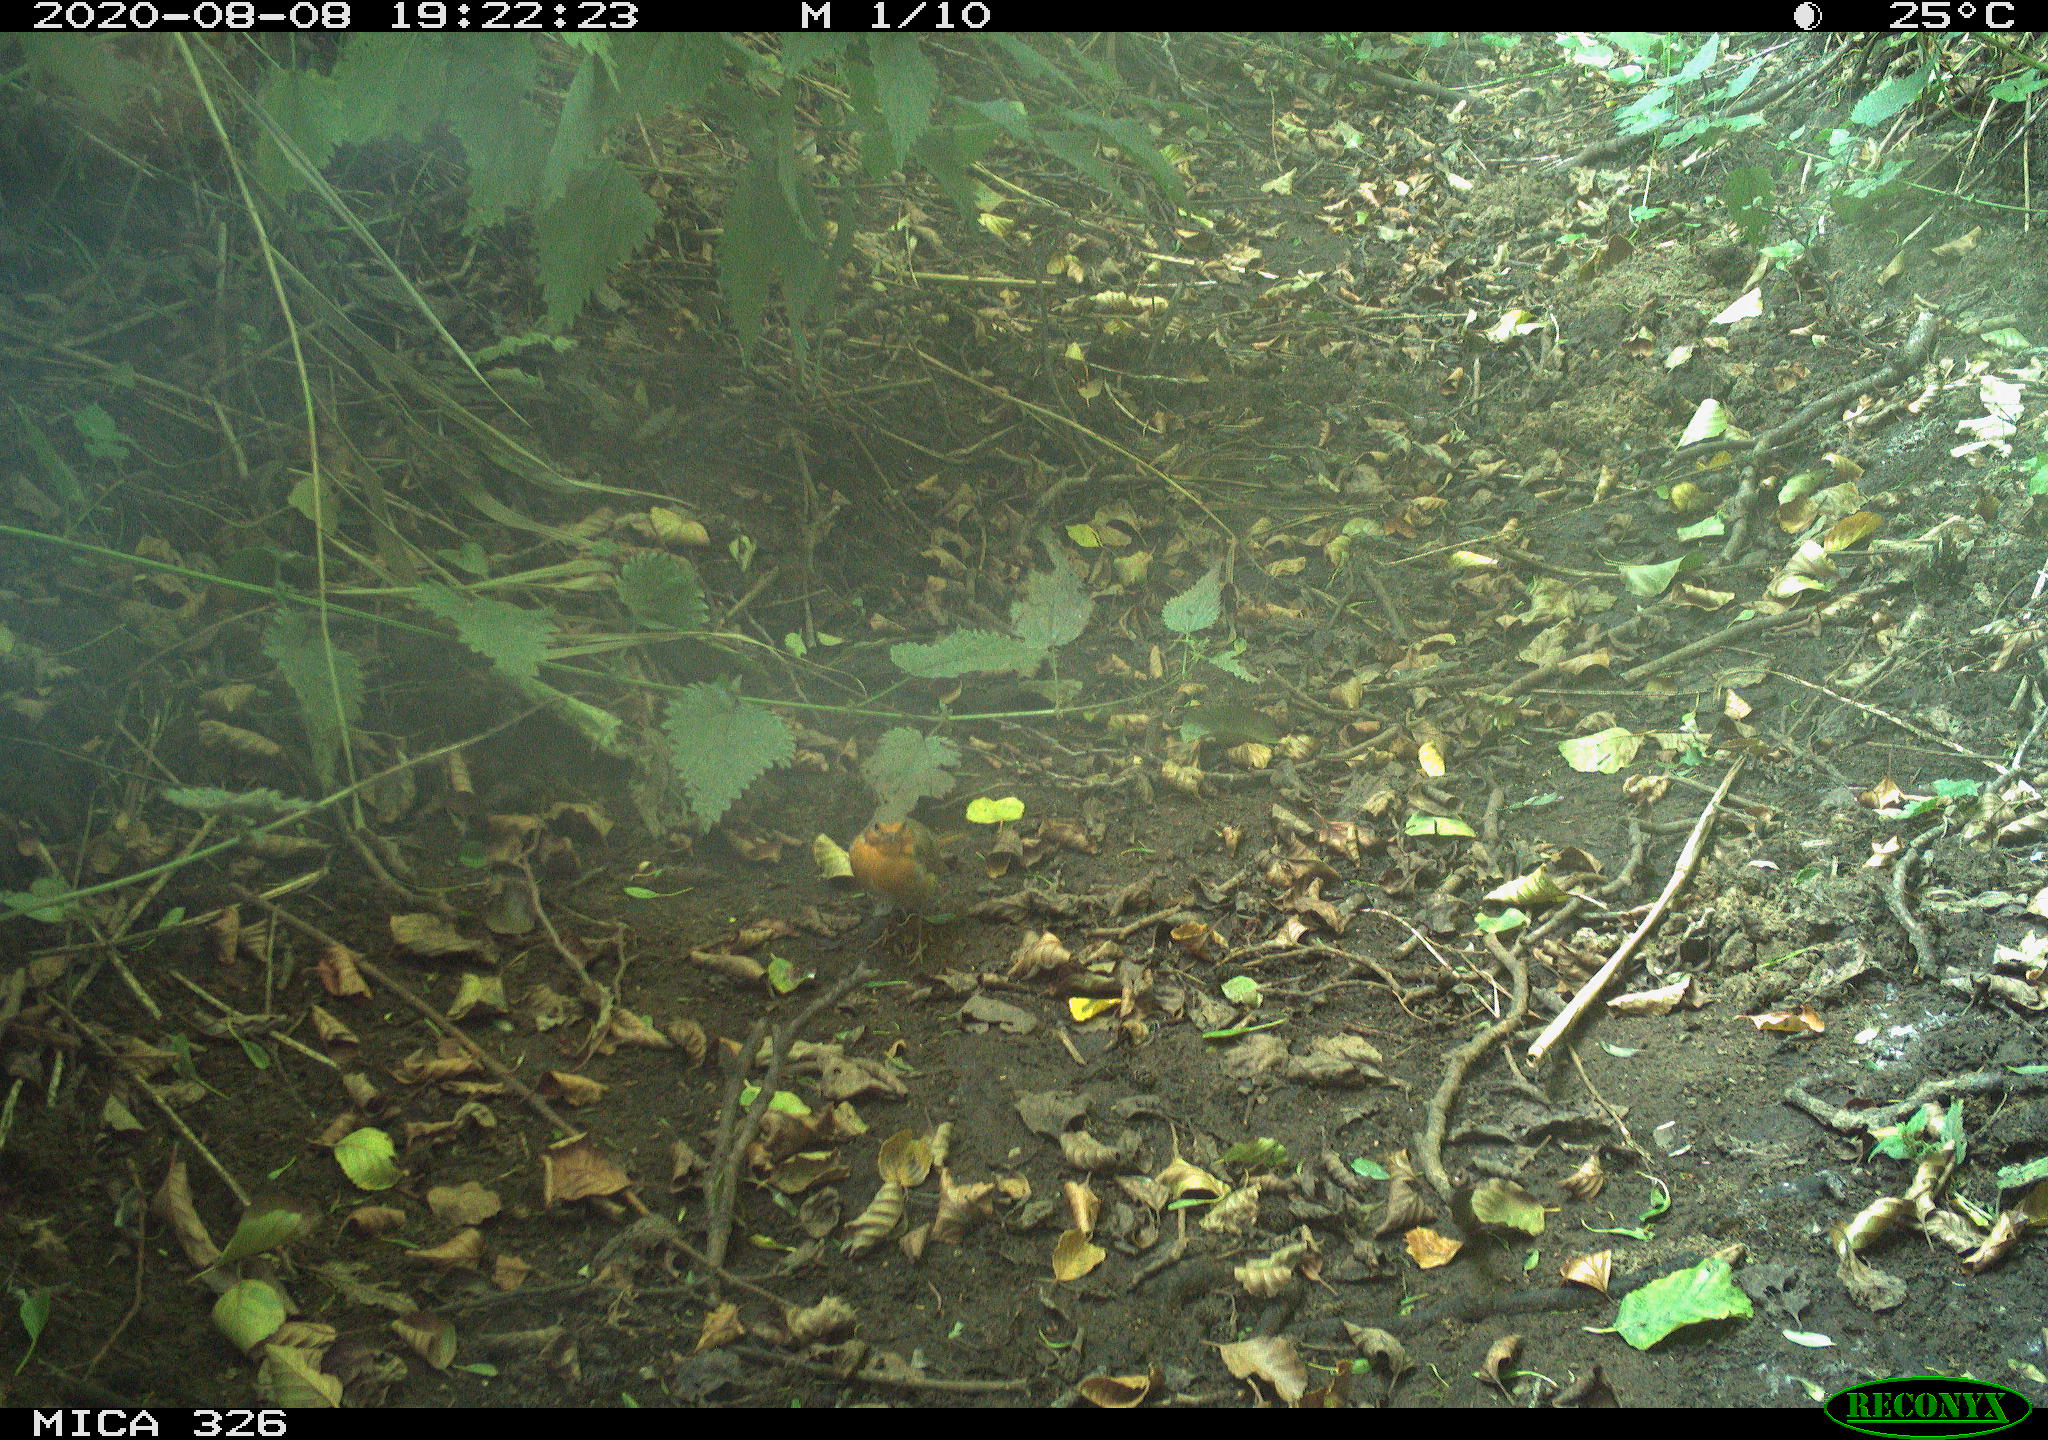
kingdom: Animalia
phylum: Chordata
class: Aves
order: Passeriformes
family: Muscicapidae
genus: Erithacus
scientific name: Erithacus rubecula
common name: European robin
